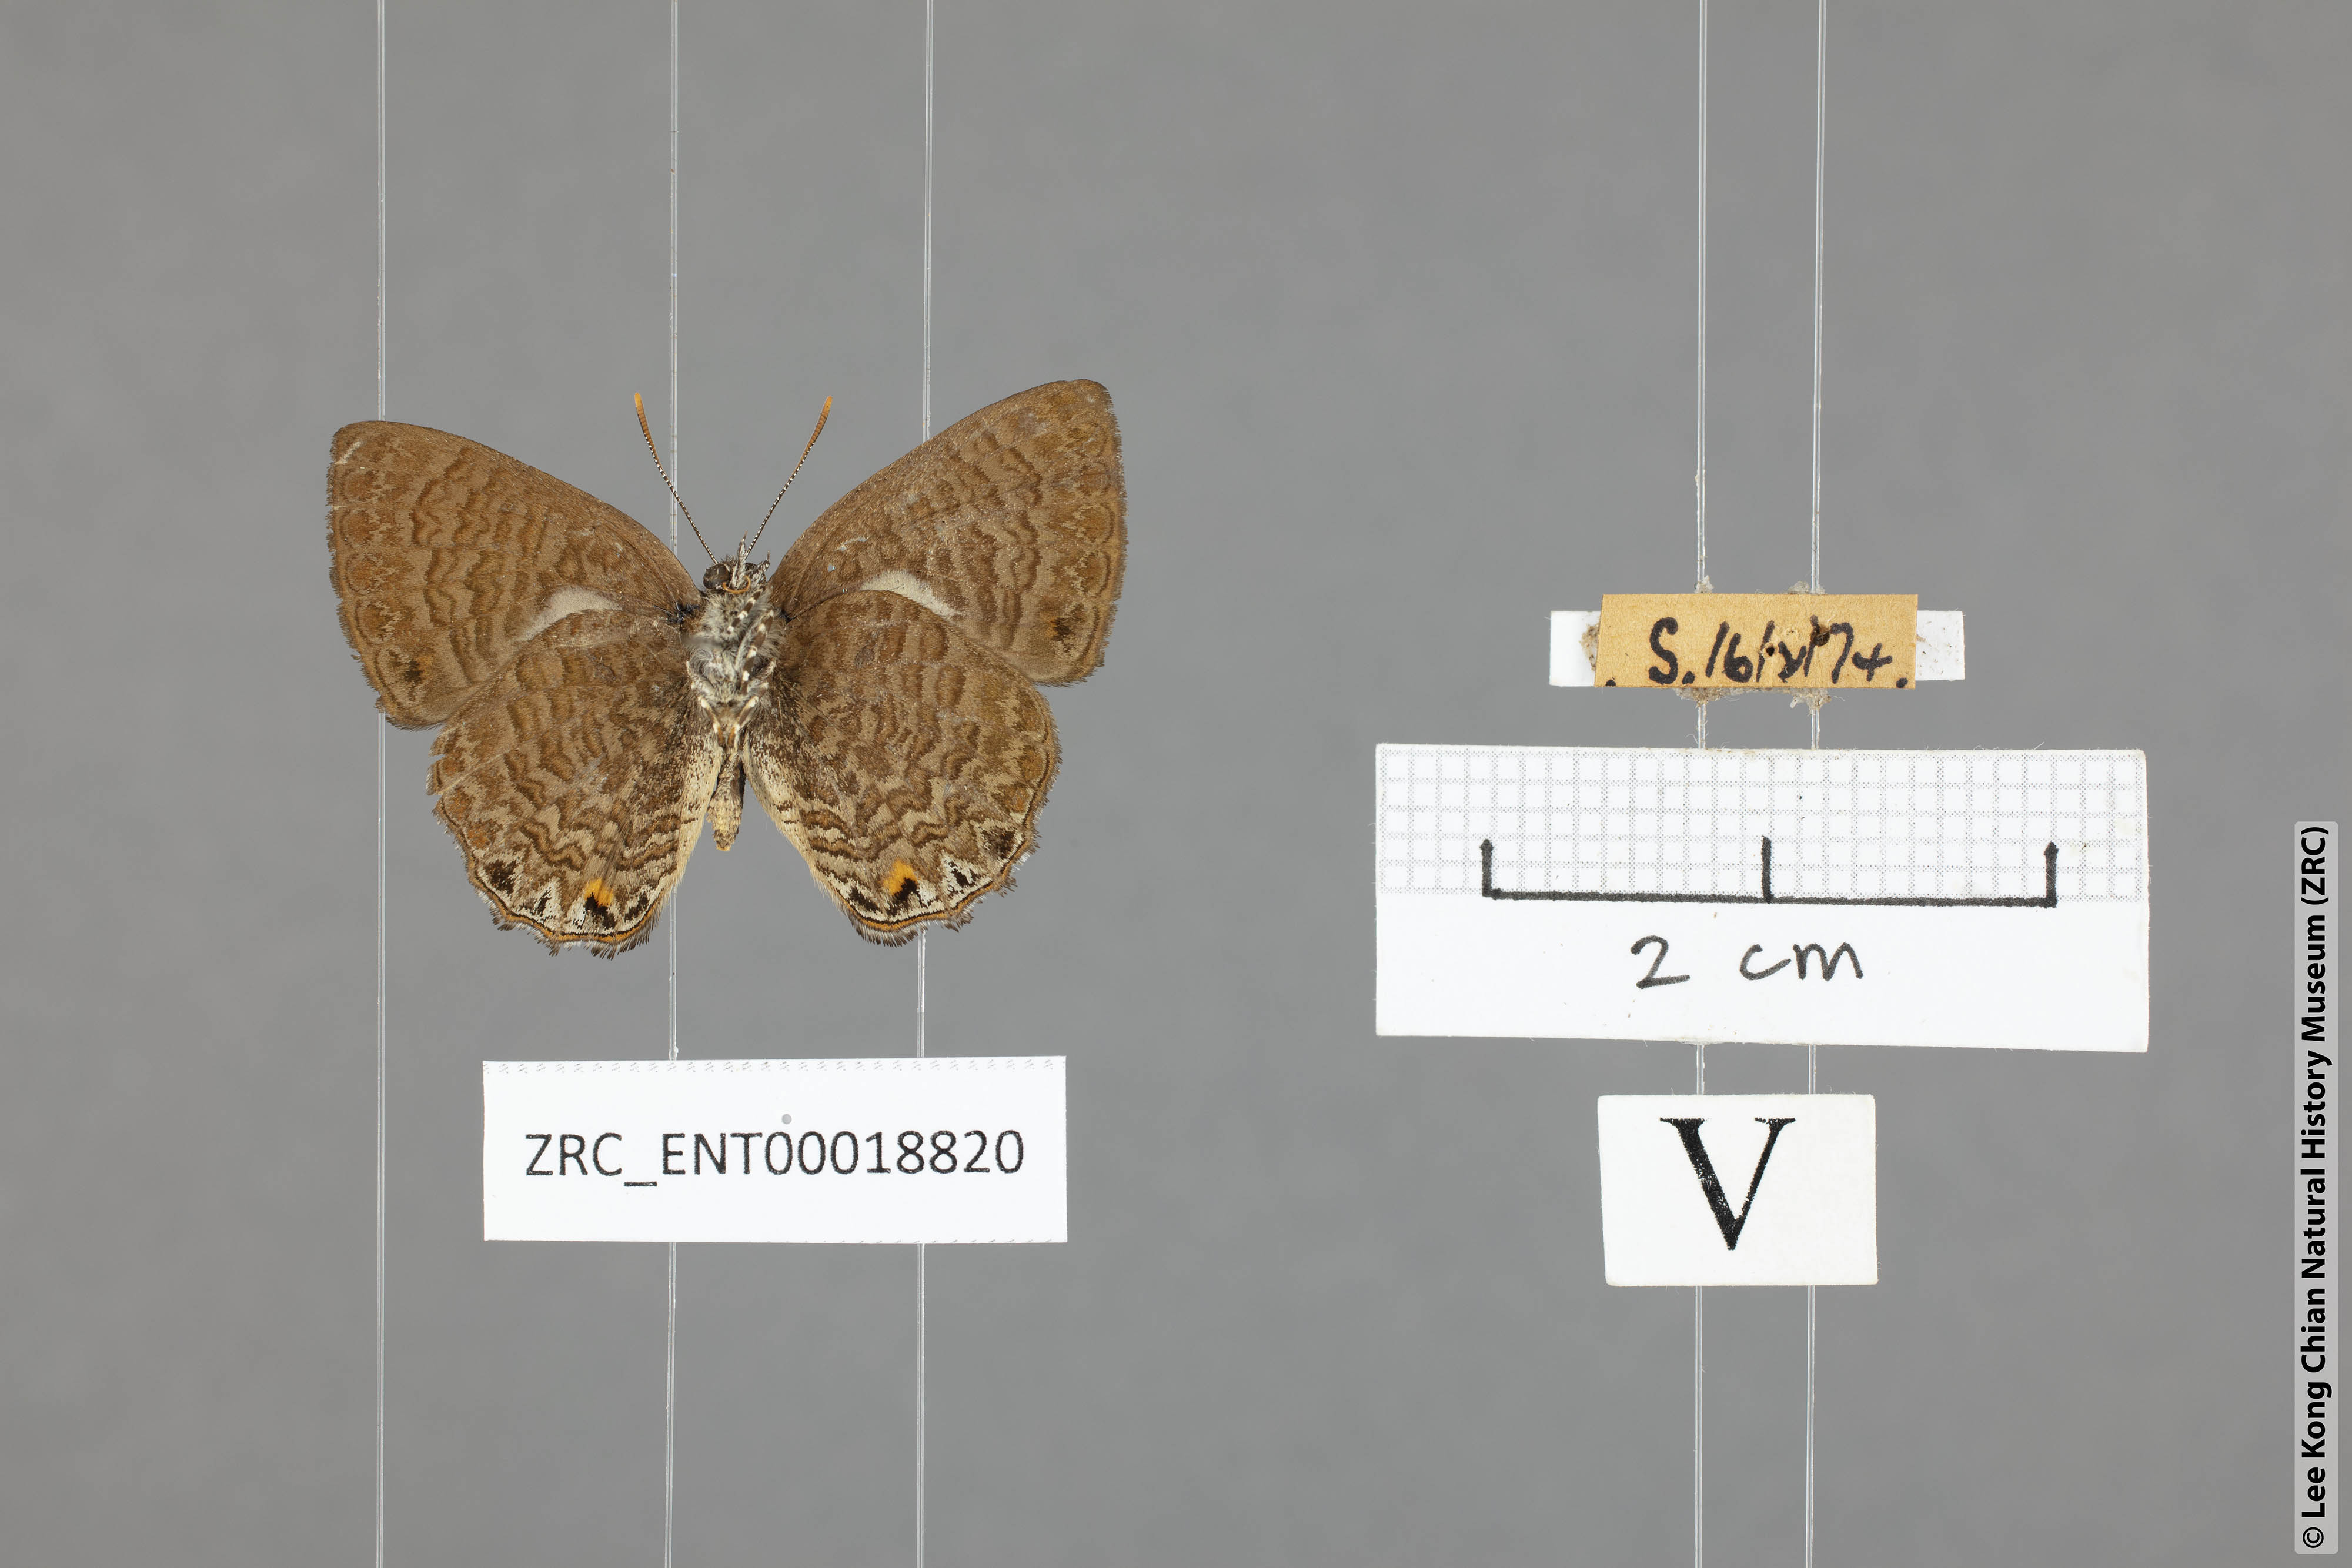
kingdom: Animalia
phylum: Arthropoda
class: Insecta
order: Lepidoptera
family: Lycaenidae
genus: Poritia
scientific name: Poritia philota
